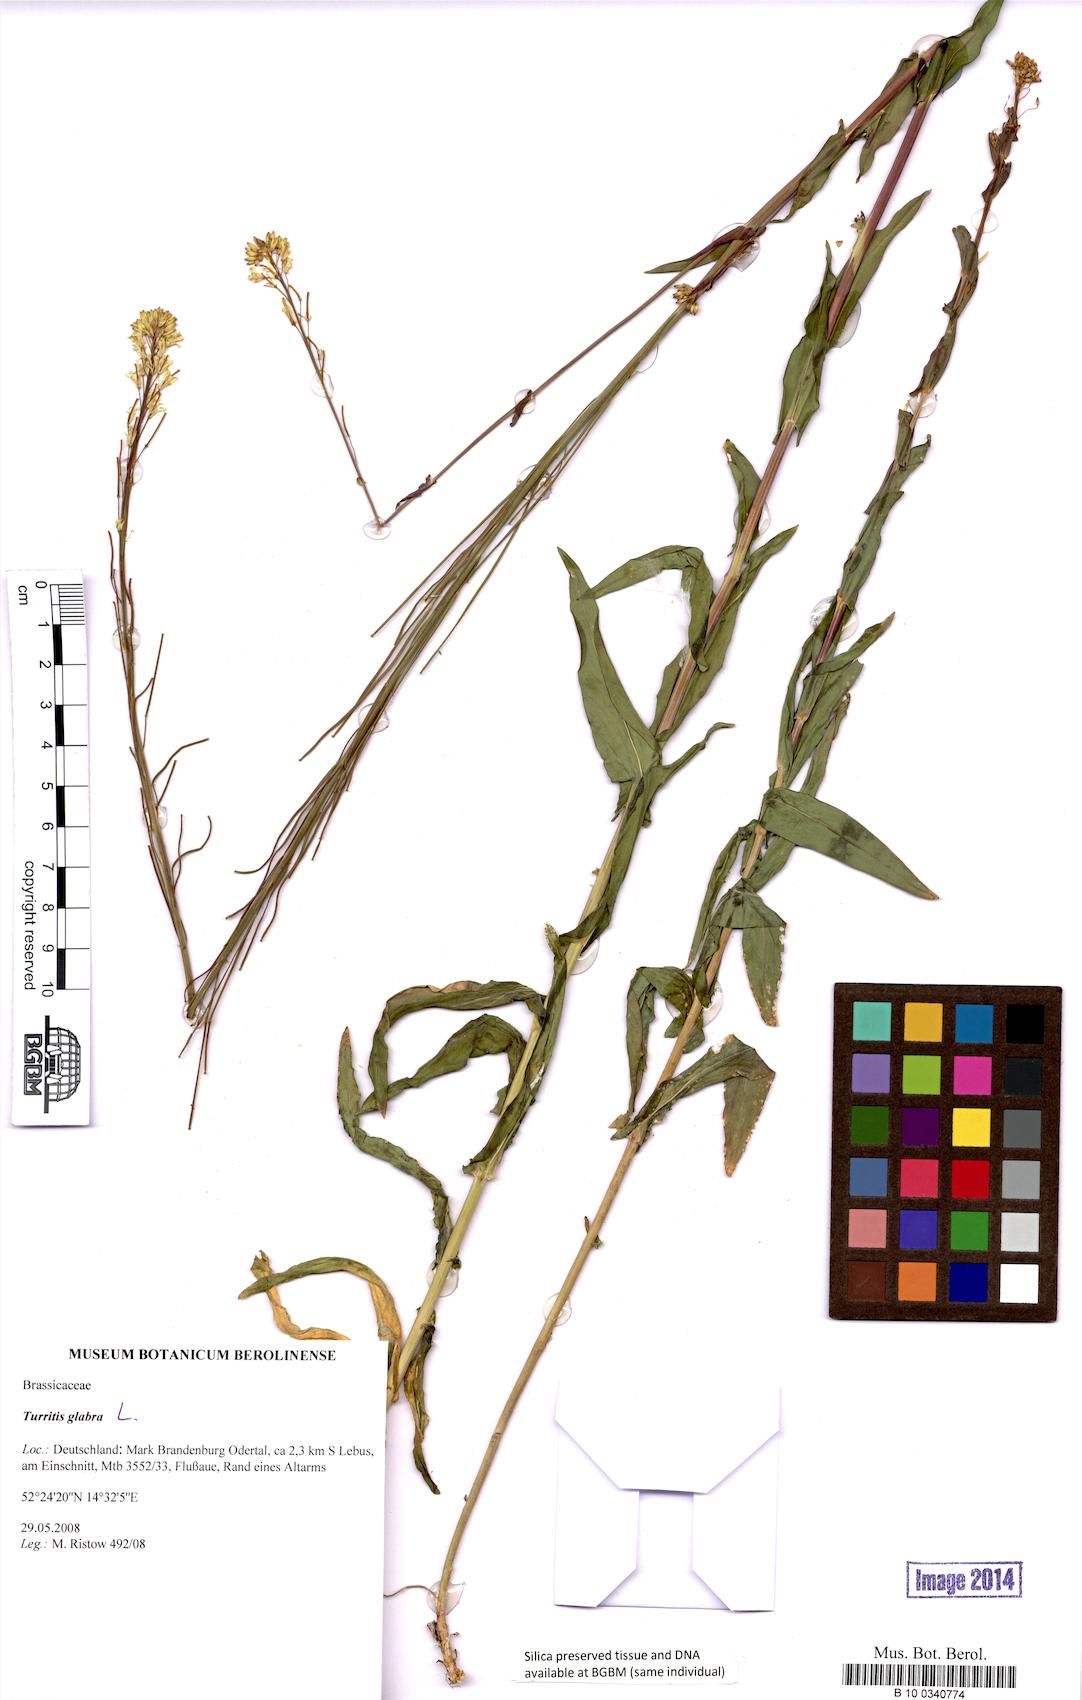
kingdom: Plantae
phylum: Tracheophyta
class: Magnoliopsida
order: Brassicales
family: Brassicaceae
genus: Turritis
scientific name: Turritis glabra
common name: Tower rockcress
